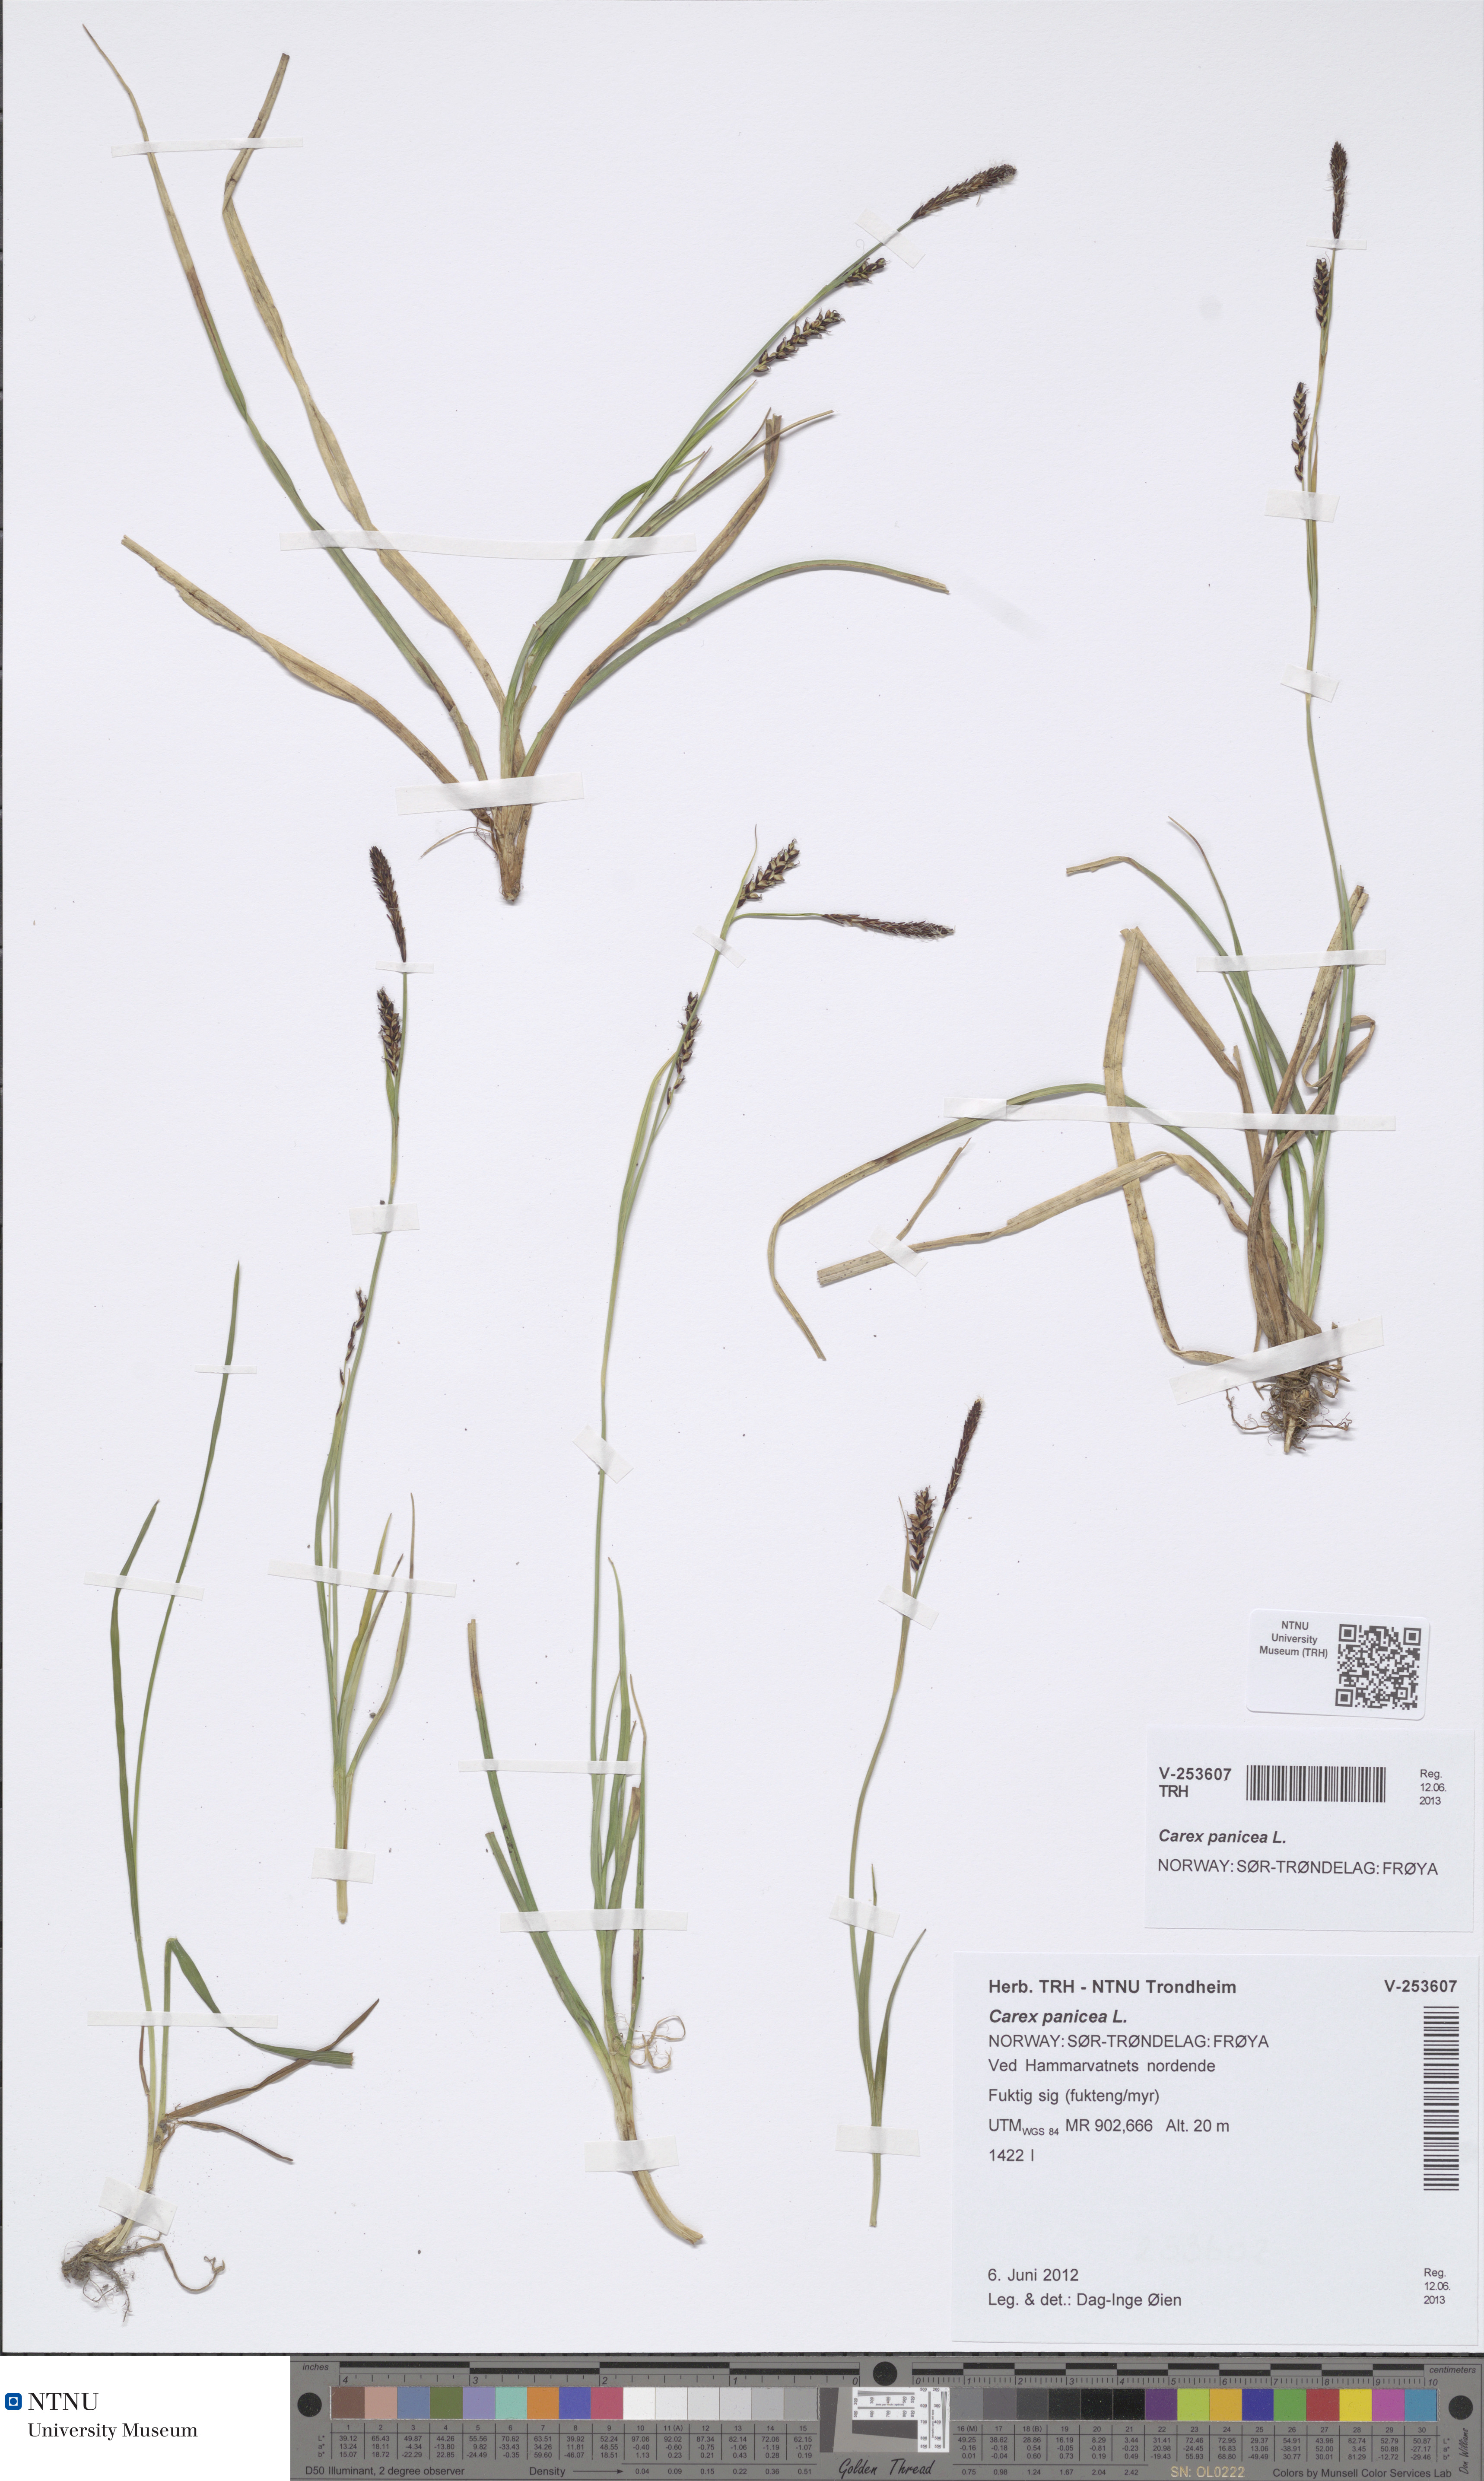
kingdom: Plantae
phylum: Tracheophyta
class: Liliopsida
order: Poales
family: Cyperaceae
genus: Carex
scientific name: Carex panicea
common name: Carnation sedge
